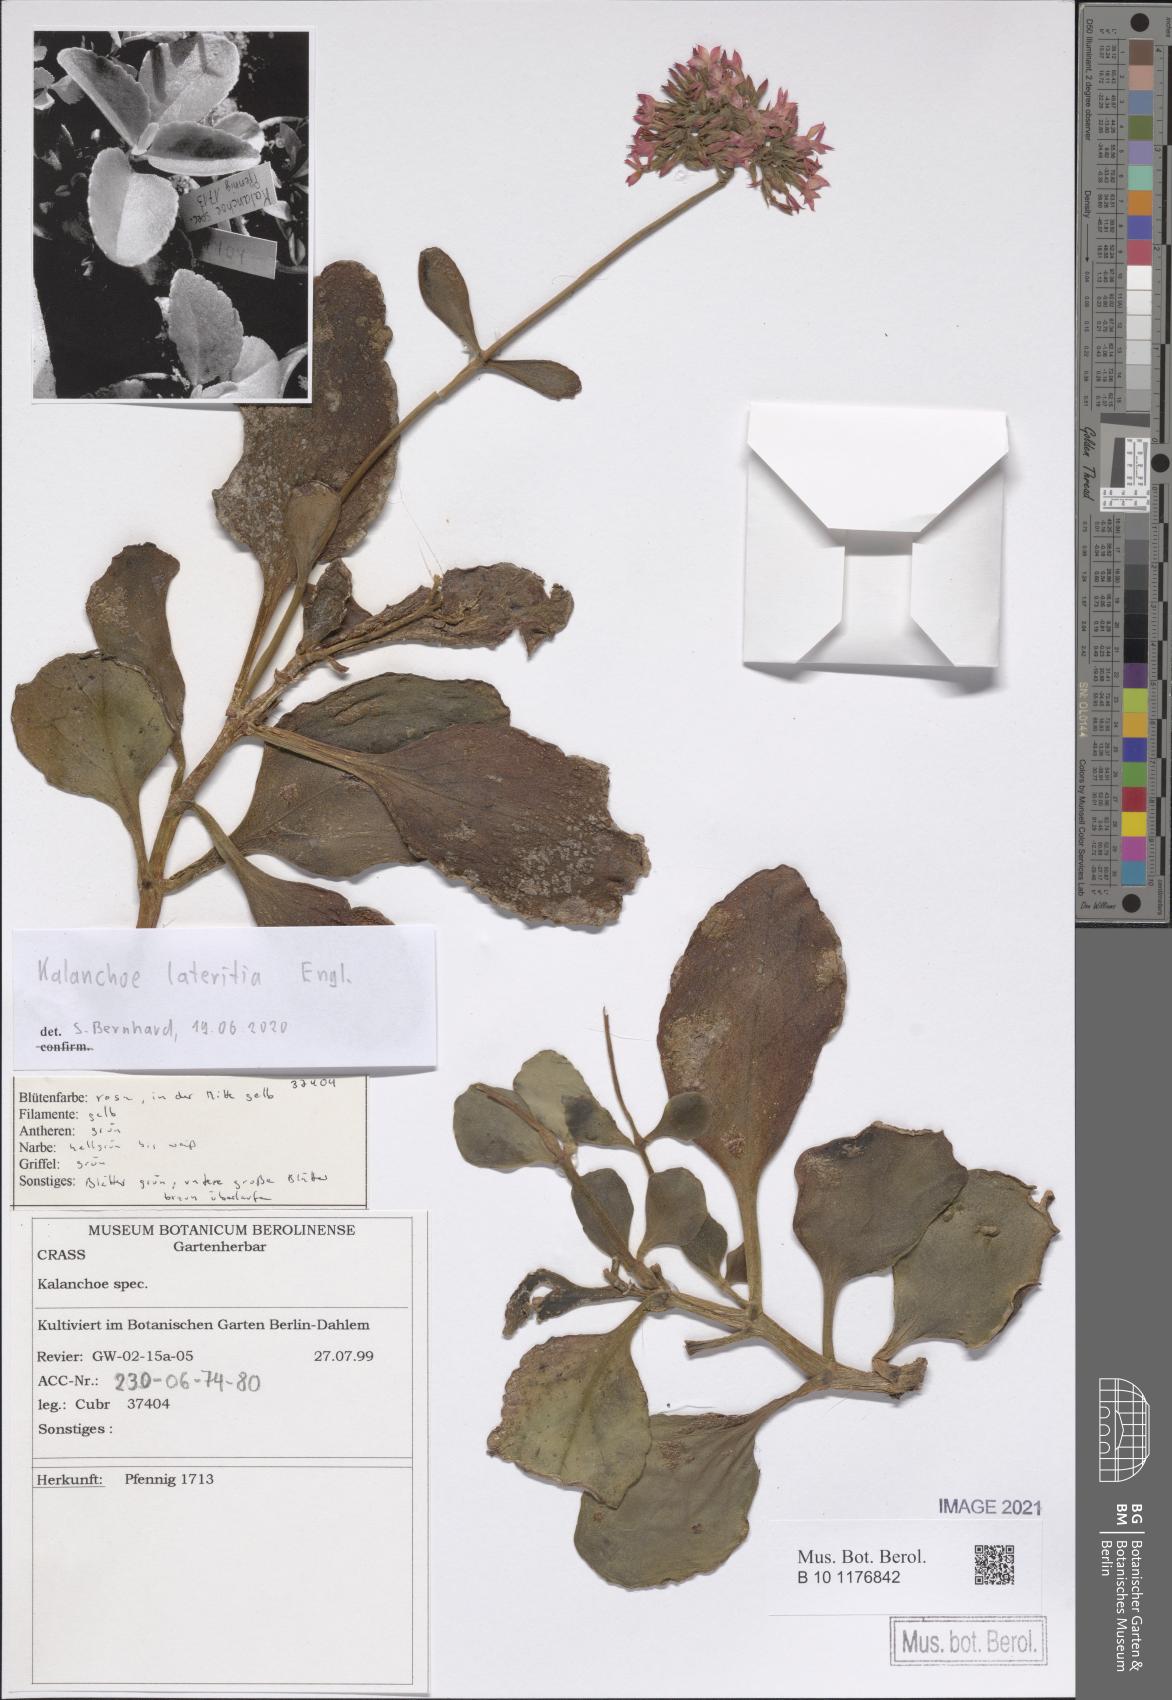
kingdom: Plantae
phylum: Tracheophyta
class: Magnoliopsida
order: Saxifragales
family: Crassulaceae
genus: Kalanchoe
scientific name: Kalanchoe lateritia
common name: Kalanchoe
